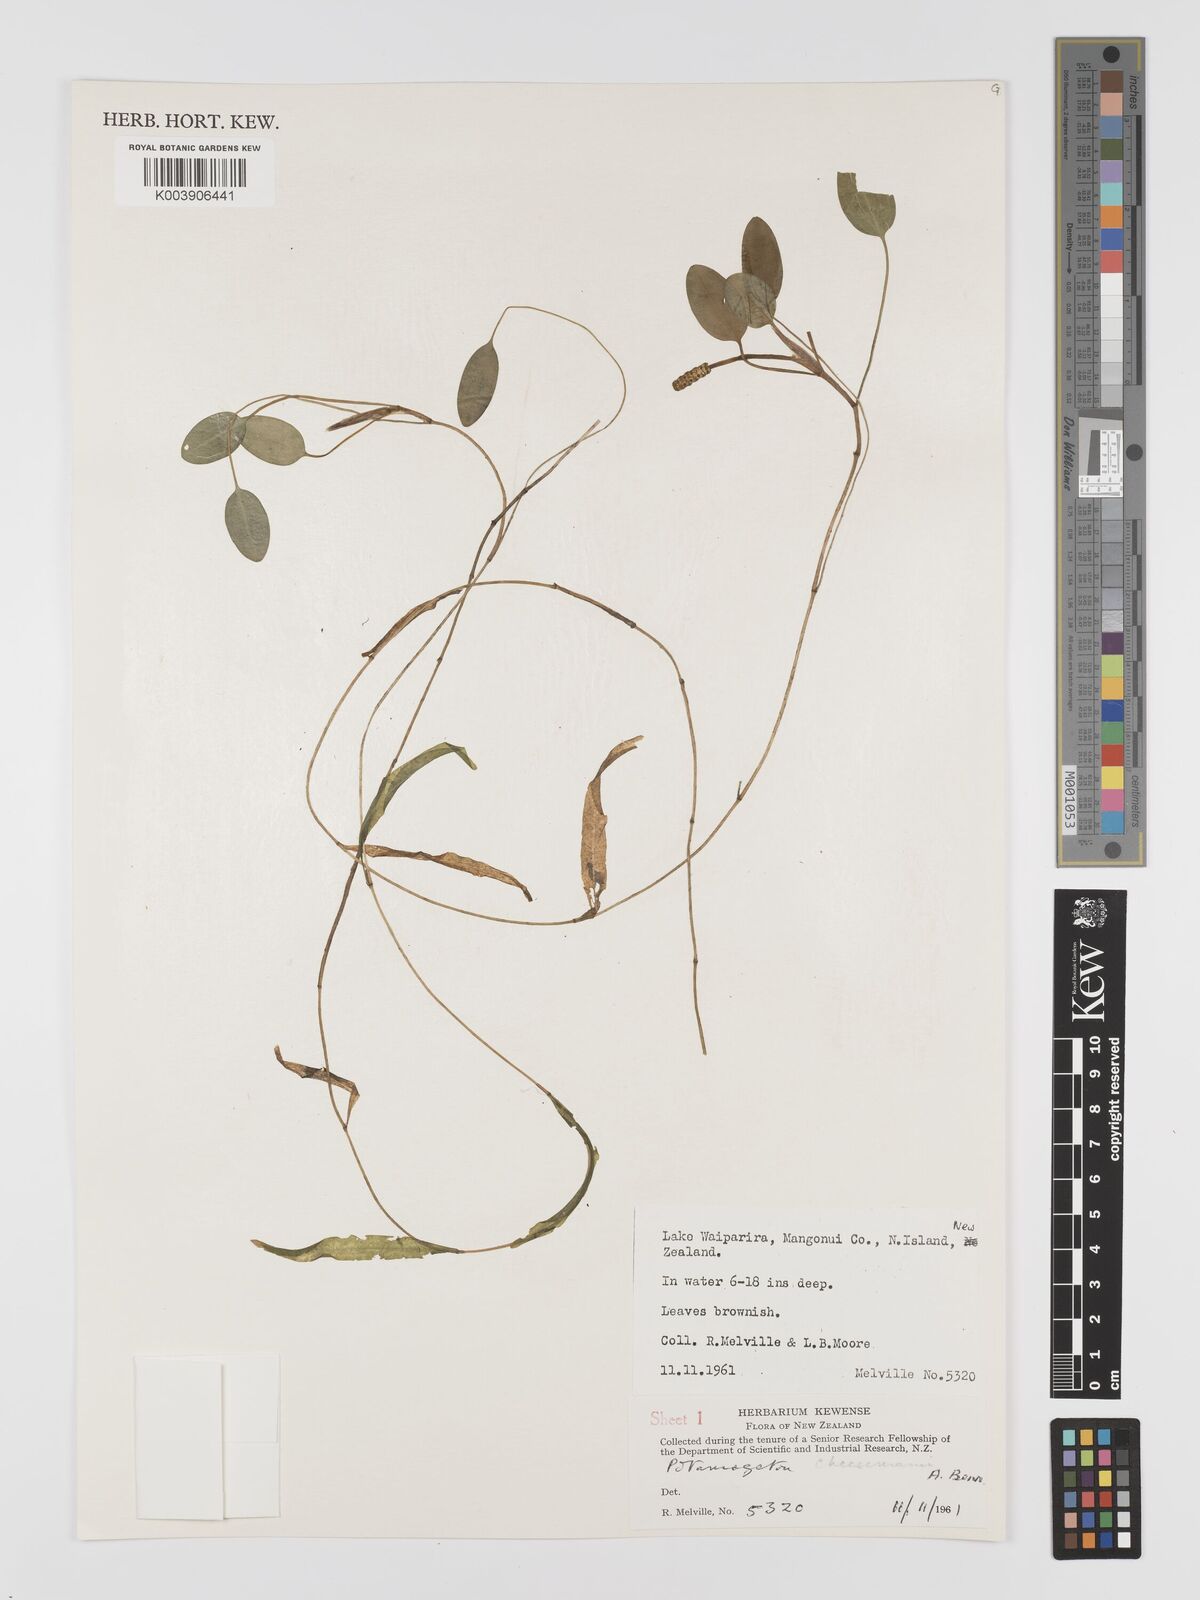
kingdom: Plantae
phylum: Tracheophyta
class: Liliopsida
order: Alismatales
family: Potamogetonaceae
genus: Potamogeton
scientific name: Potamogeton cheesemanii
